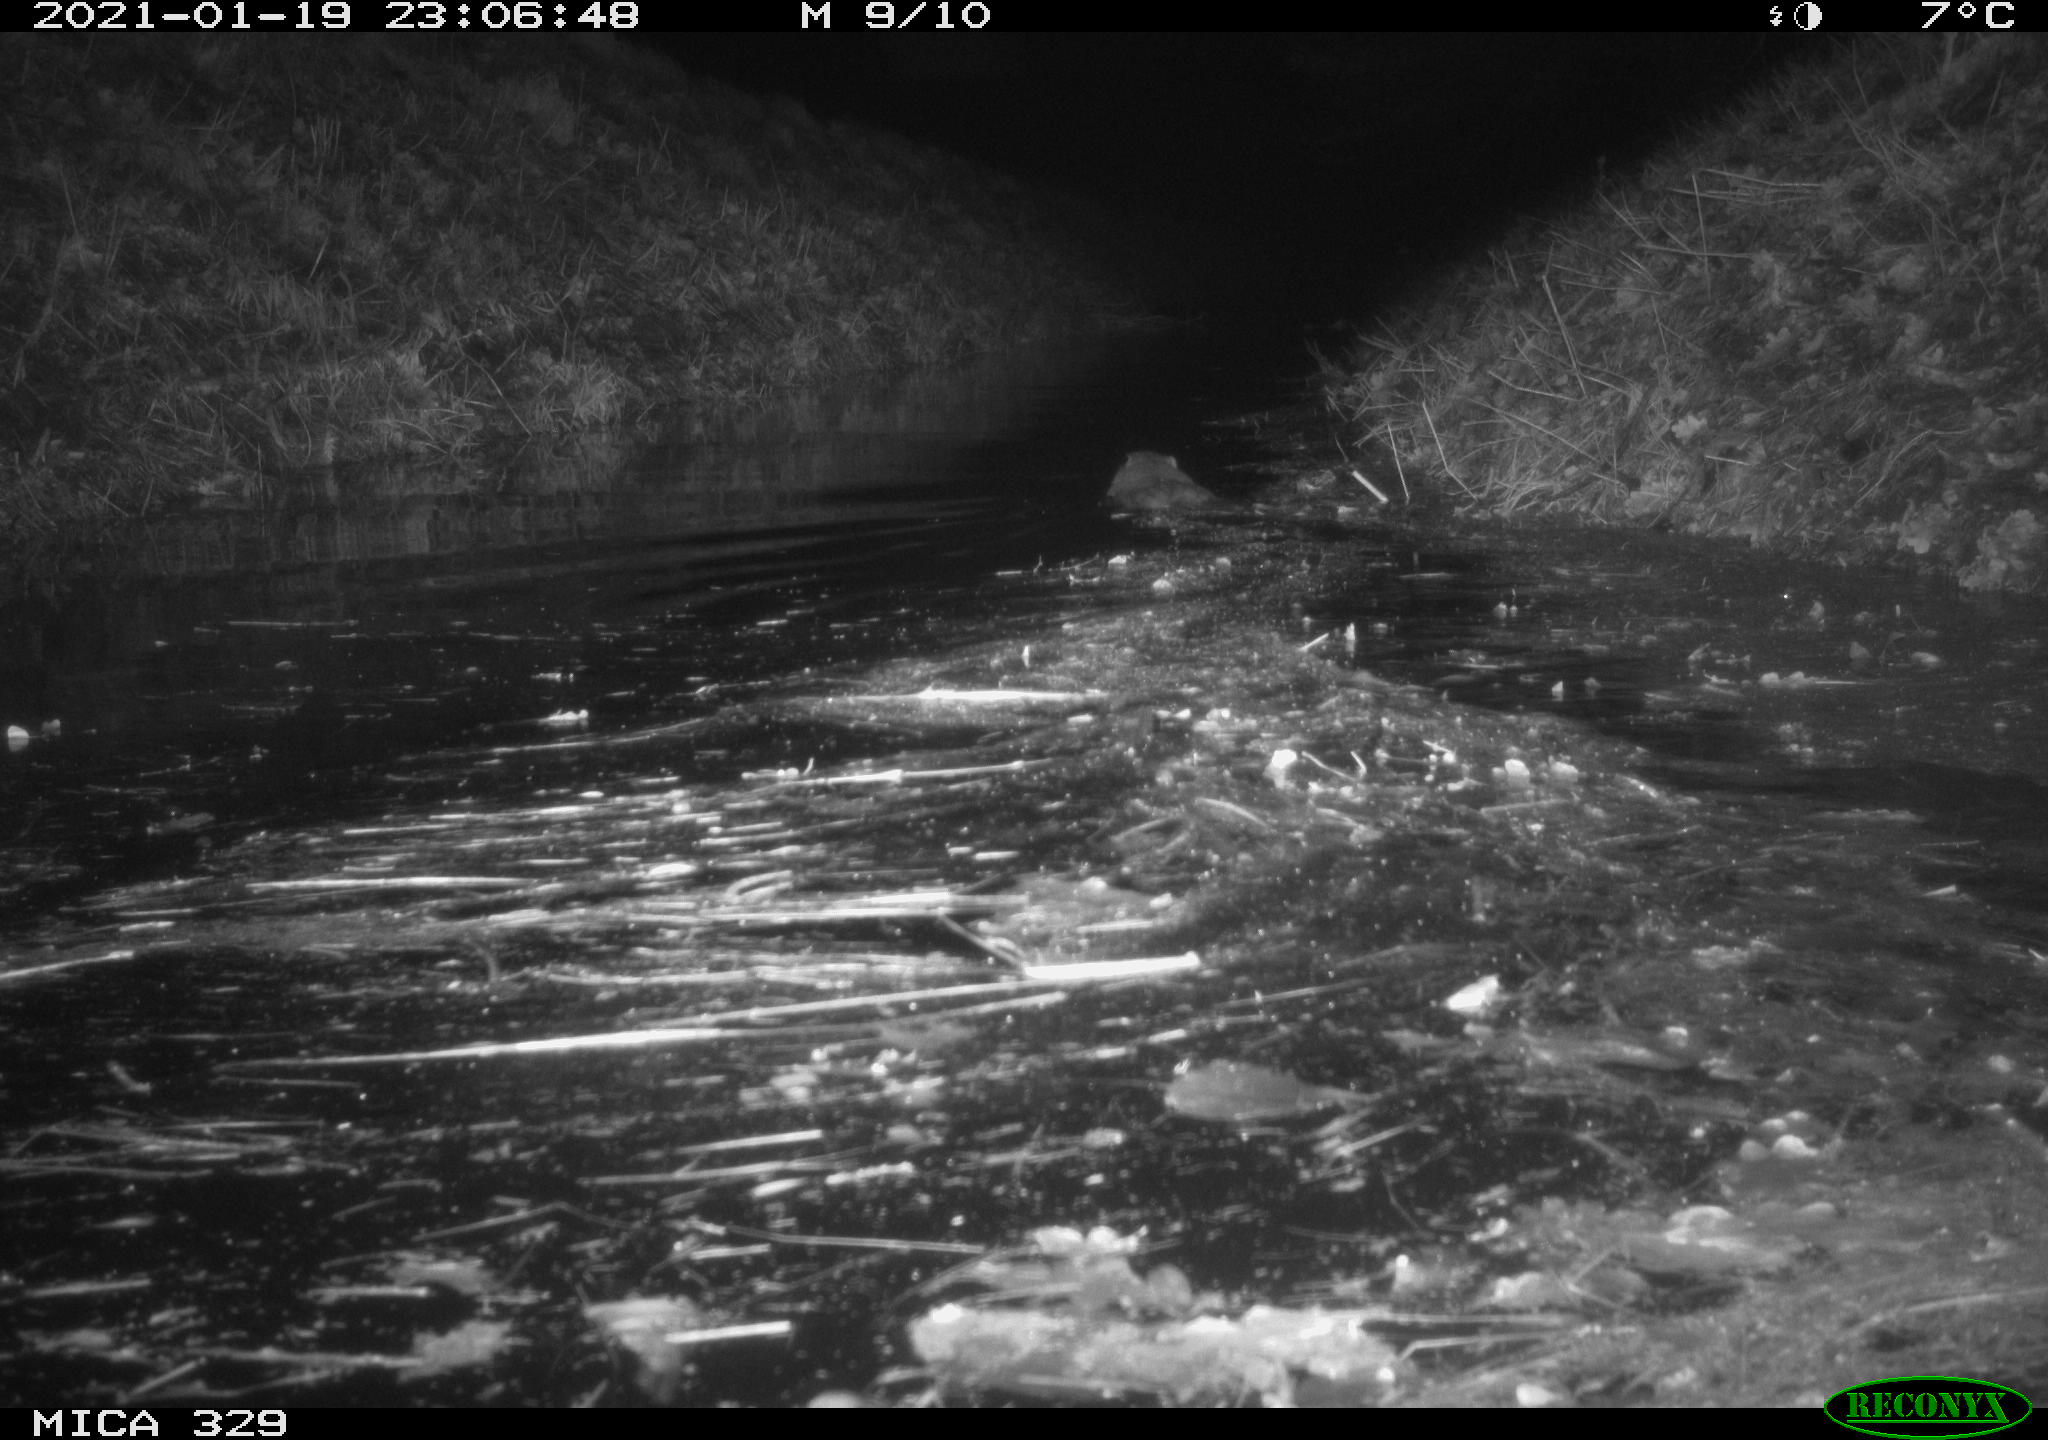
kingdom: Animalia
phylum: Chordata
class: Mammalia
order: Rodentia
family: Myocastoridae
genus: Myocastor
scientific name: Myocastor coypus
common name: Coypu
